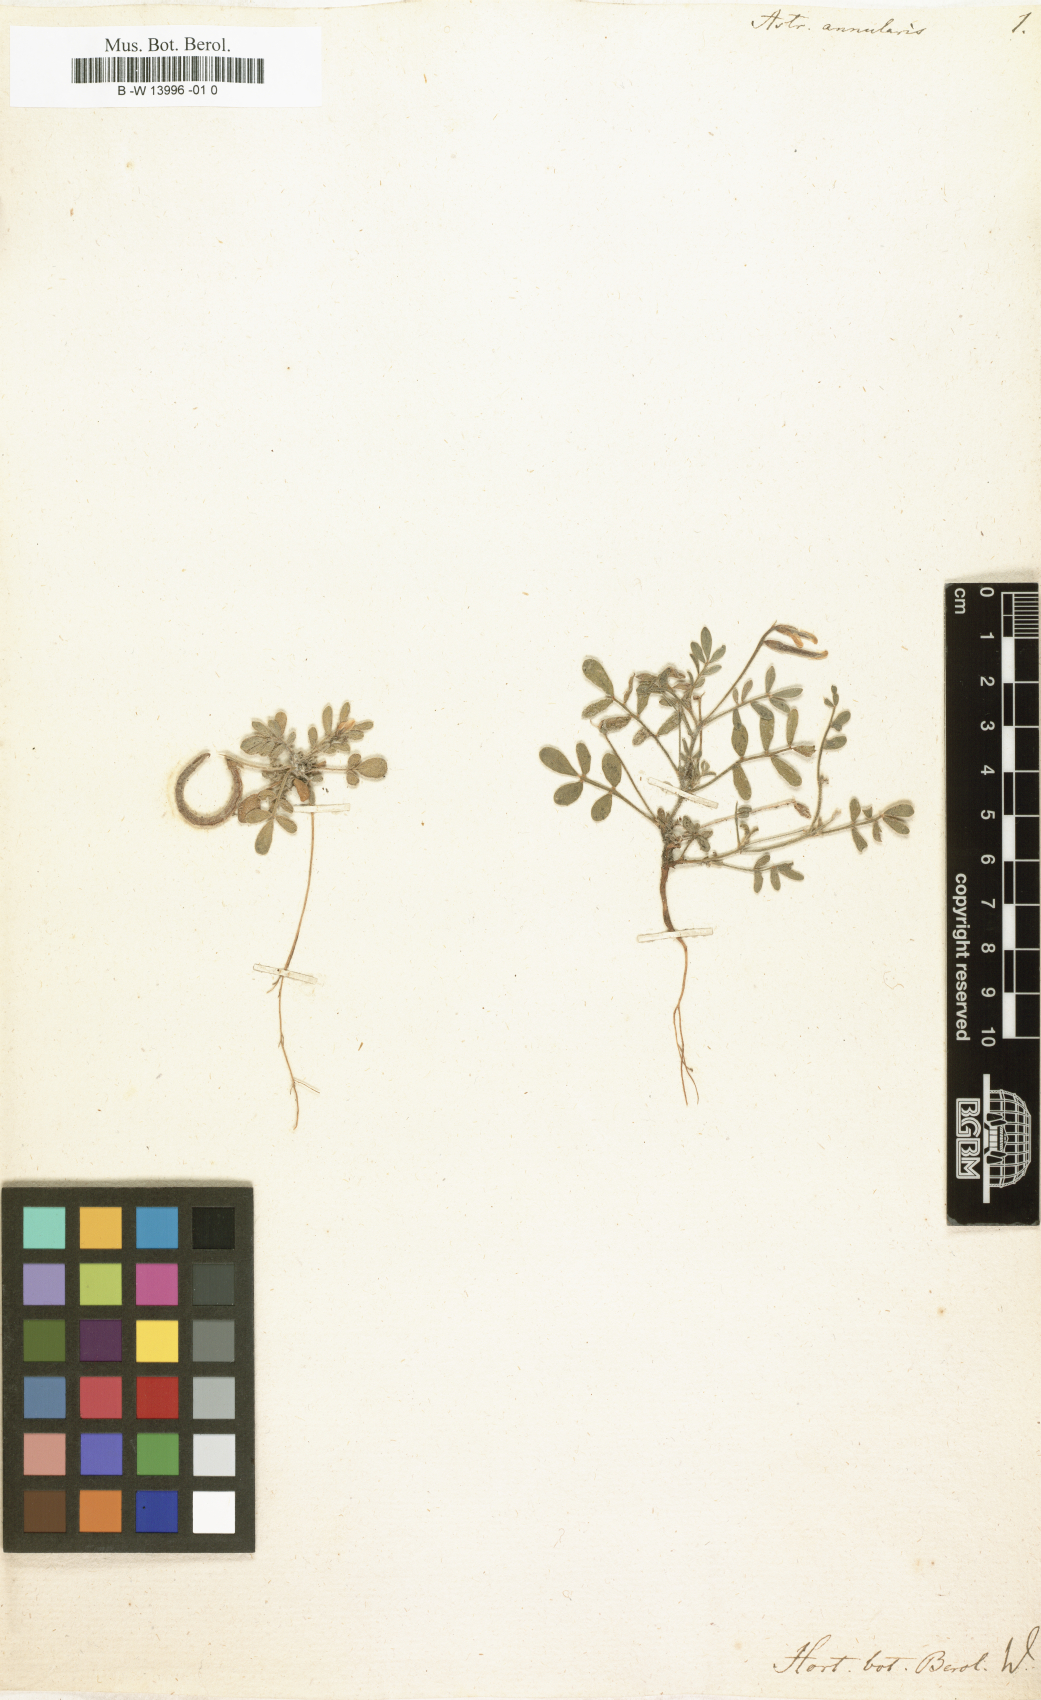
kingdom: Plantae
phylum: Tracheophyta
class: Magnoliopsida
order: Fabales
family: Fabaceae
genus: Astragalus
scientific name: Astragalus annularis
